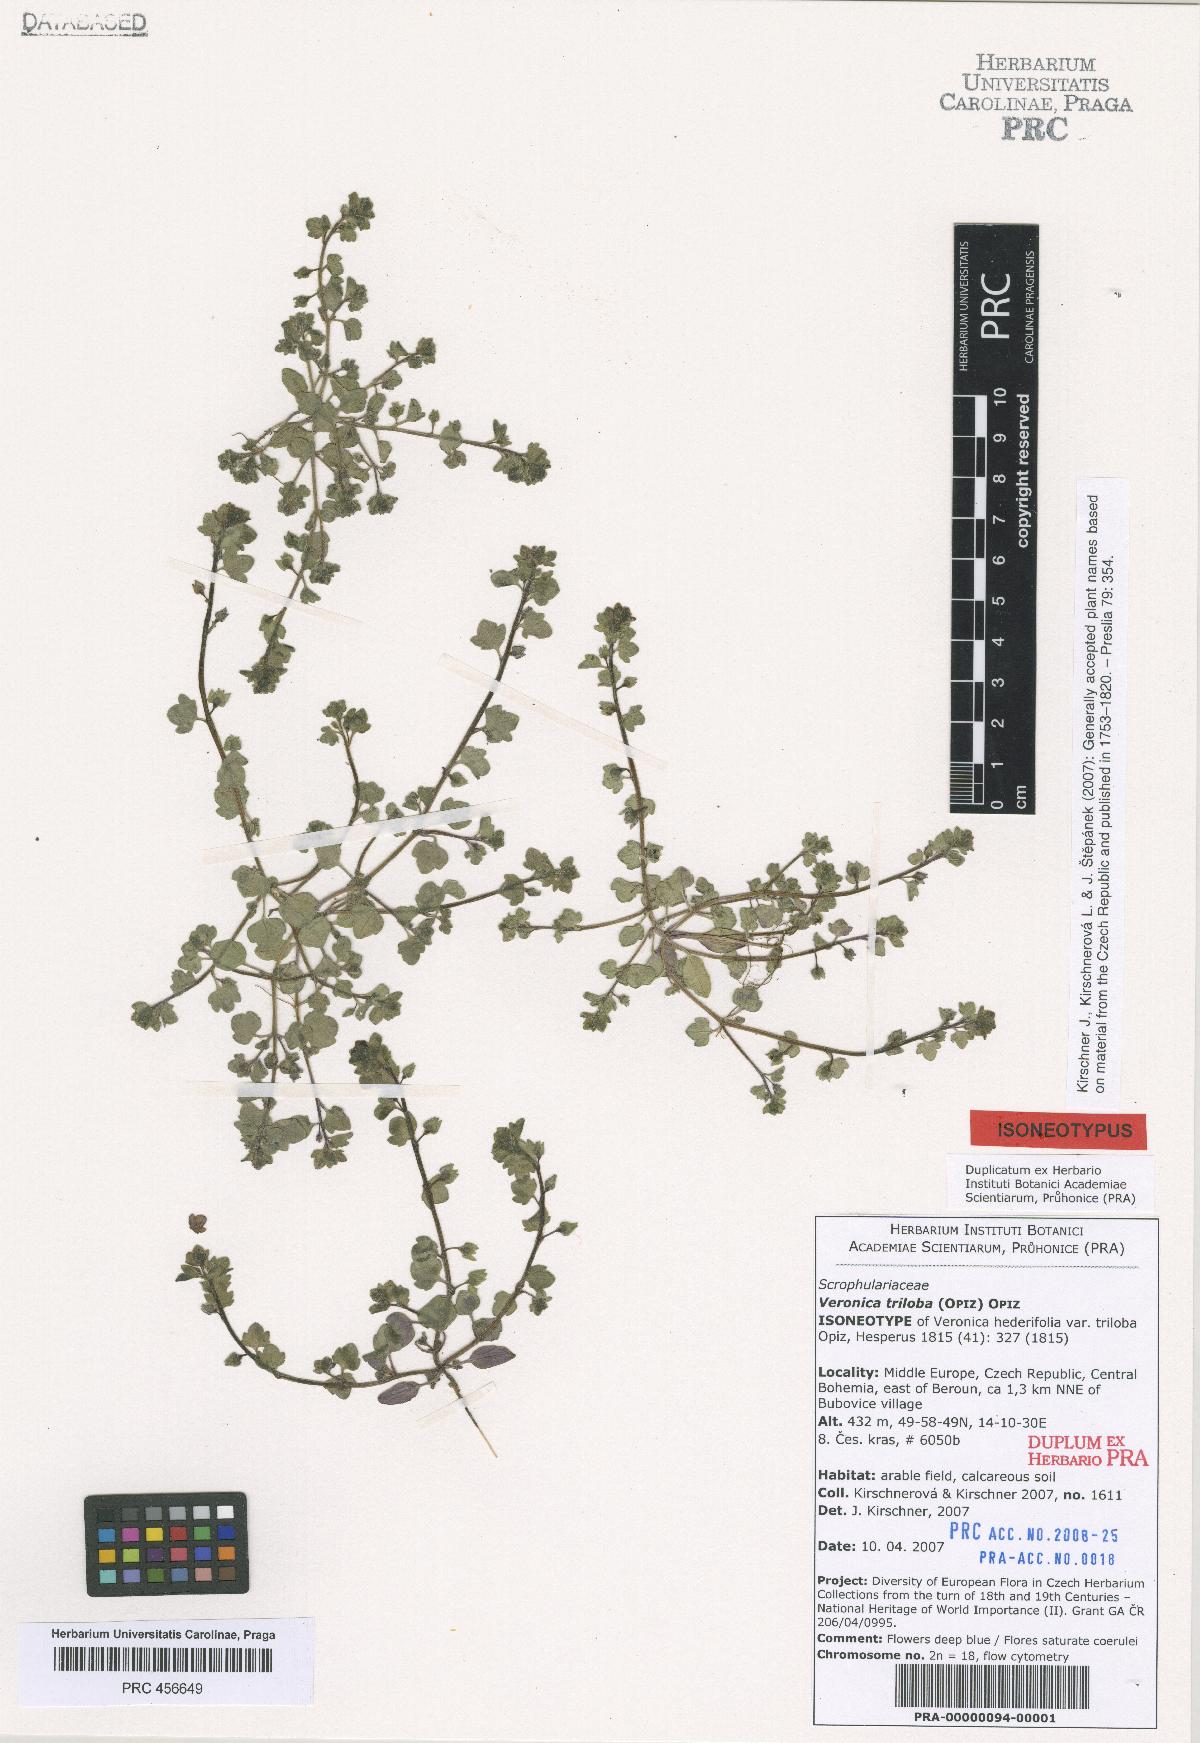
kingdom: Plantae
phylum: Tracheophyta
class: Magnoliopsida
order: Lamiales
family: Plantaginaceae
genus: Veronica
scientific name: Veronica triloba
